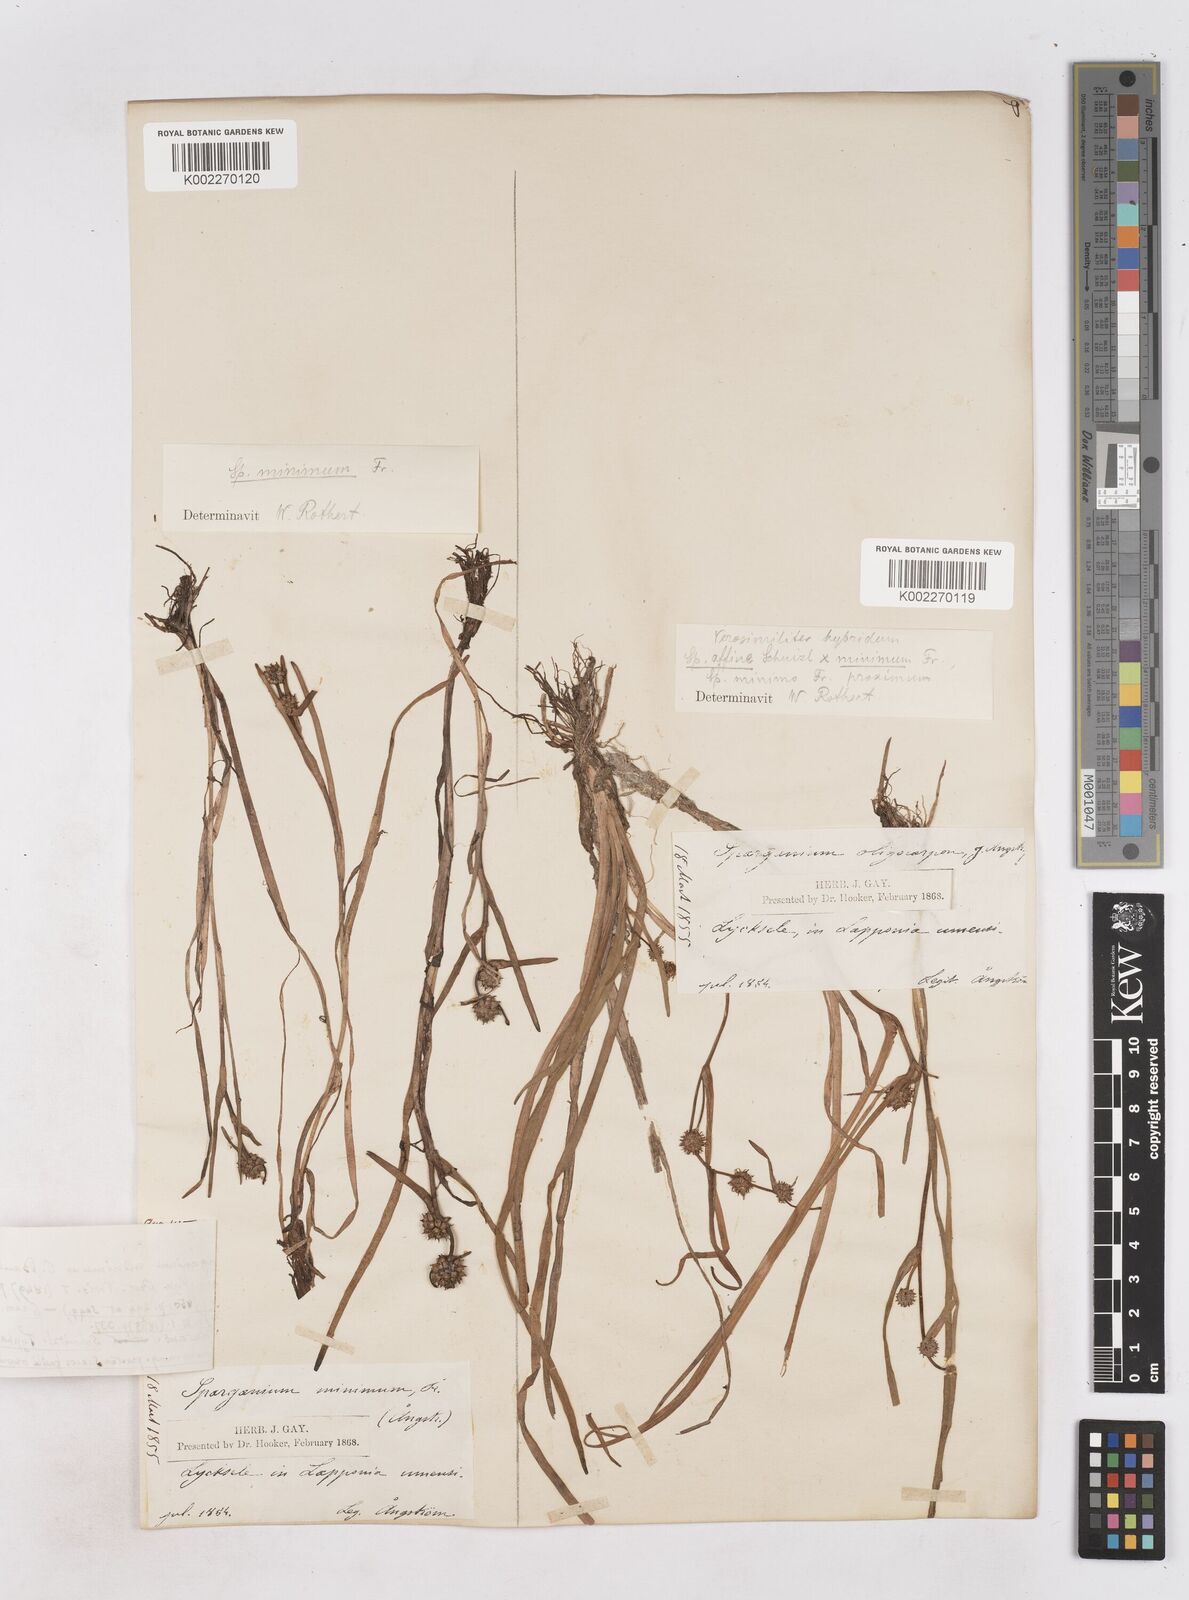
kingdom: Plantae
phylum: Tracheophyta
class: Liliopsida
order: Poales
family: Typhaceae
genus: Sparganium
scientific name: Sparganium natans
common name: Least bur-reed
